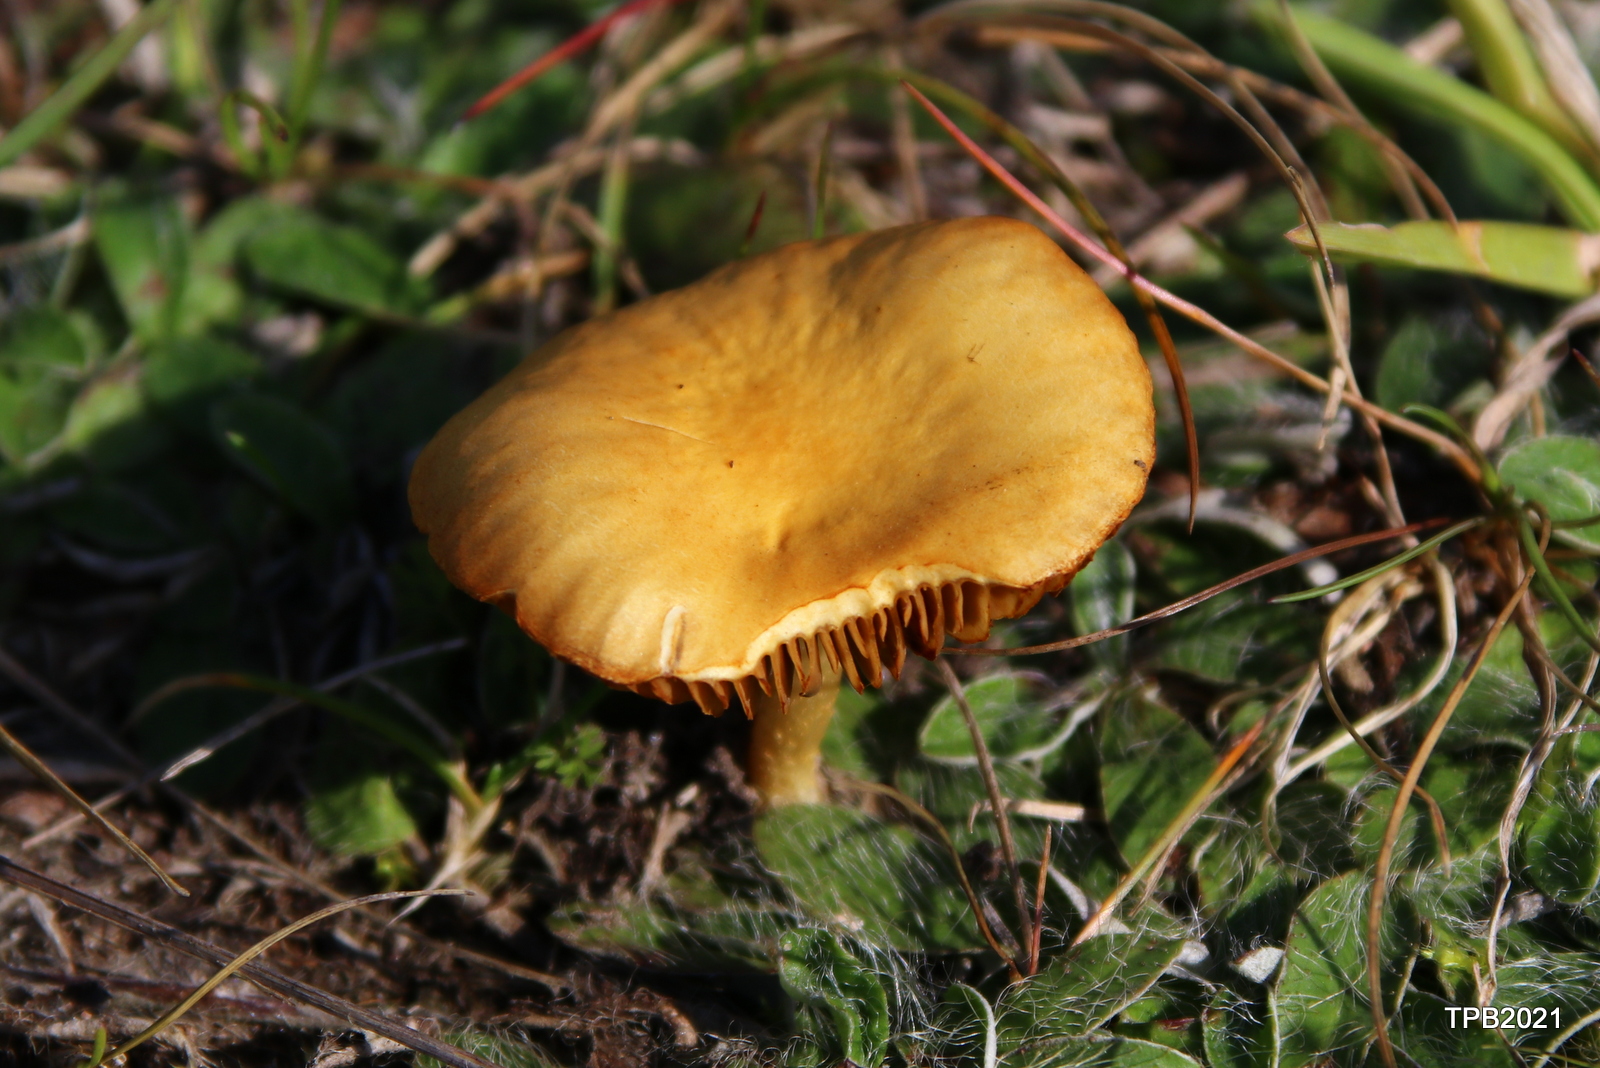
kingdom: Fungi
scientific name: Fungi
